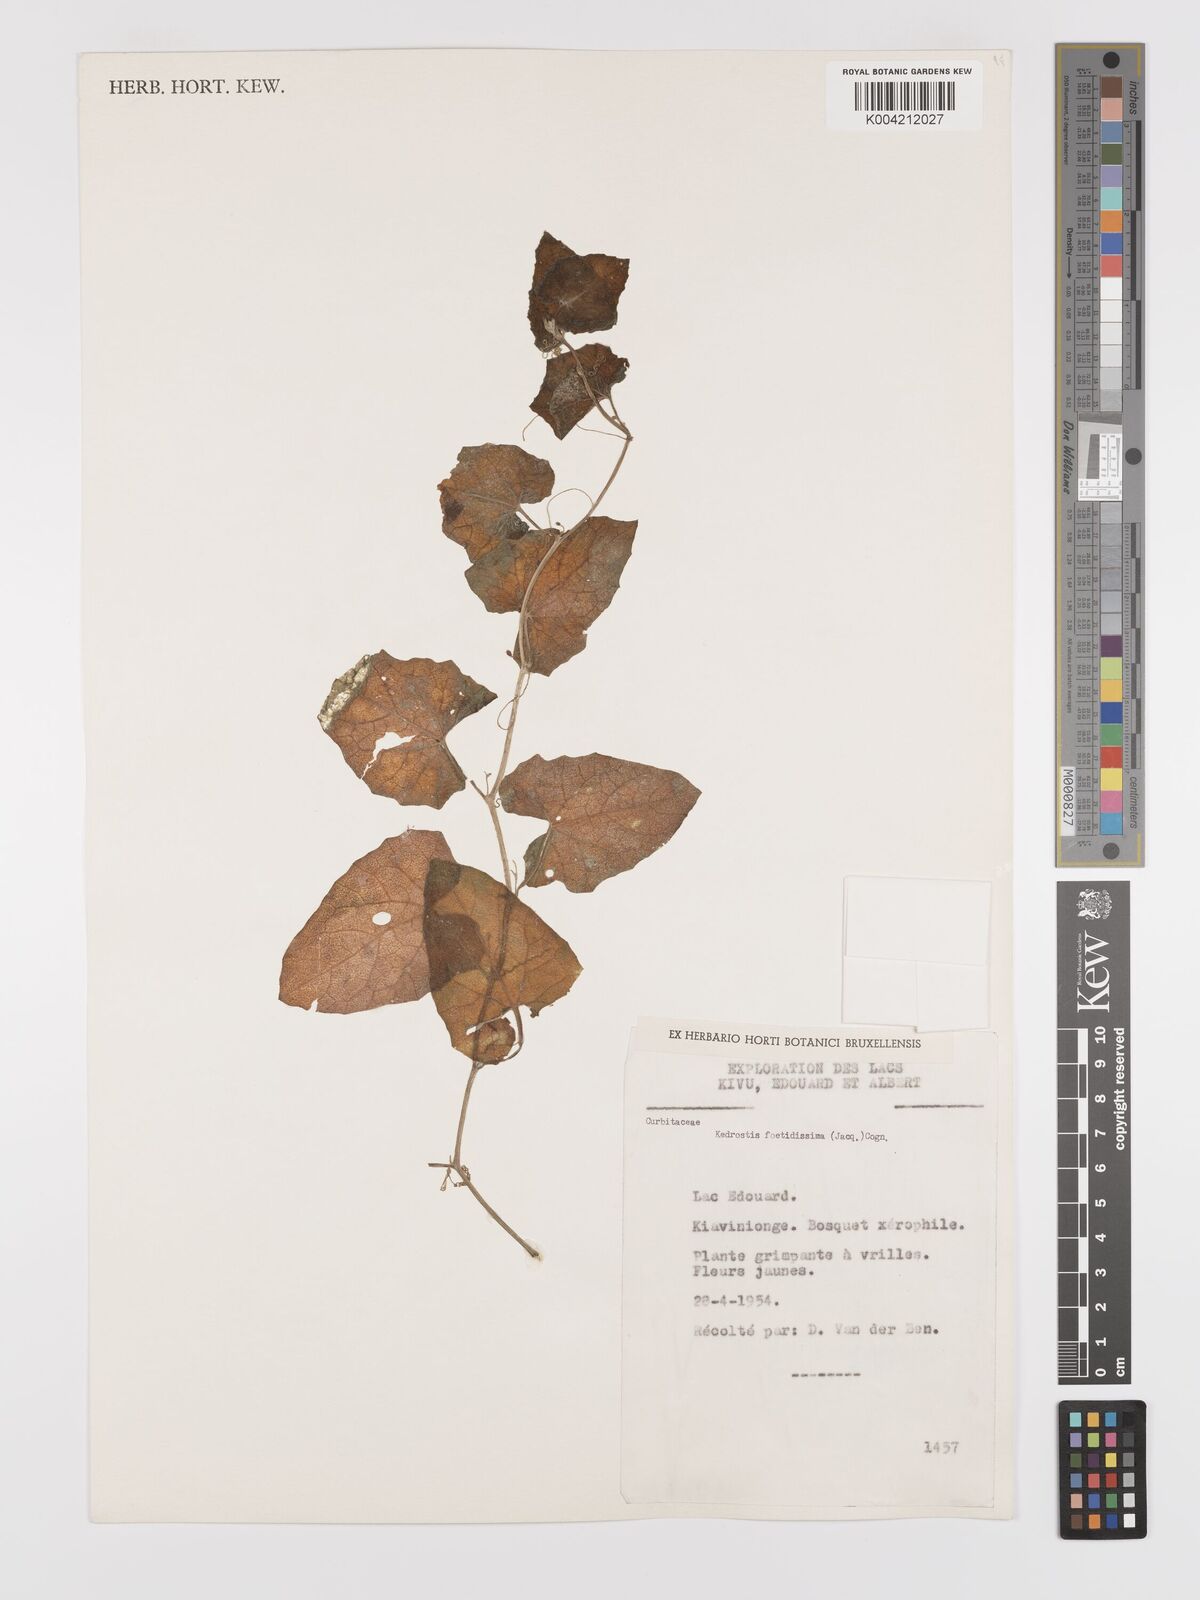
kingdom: Plantae
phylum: Tracheophyta
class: Magnoliopsida
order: Cucurbitales
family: Cucurbitaceae
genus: Kedrostis
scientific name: Kedrostis foetidissima
